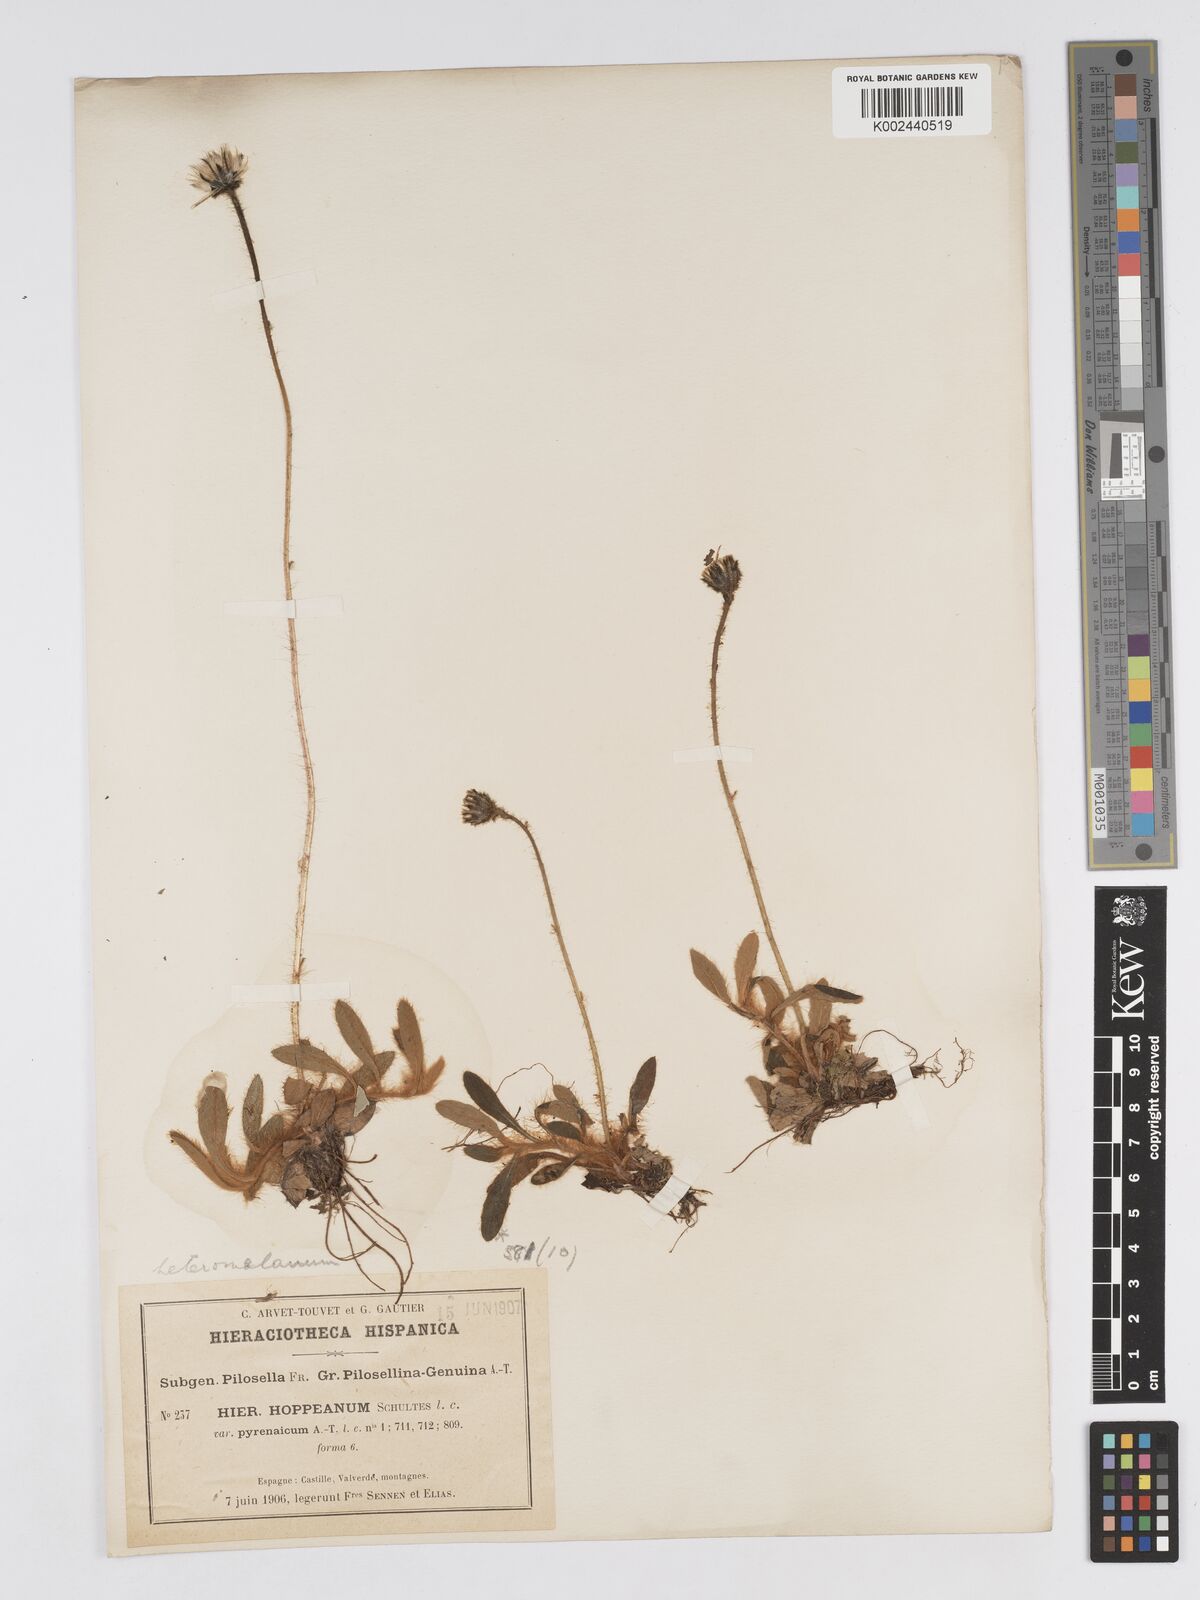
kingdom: Plantae
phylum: Tracheophyta
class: Magnoliopsida
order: Asterales
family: Asteraceae
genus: Pilosella
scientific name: Pilosella heteromelana
